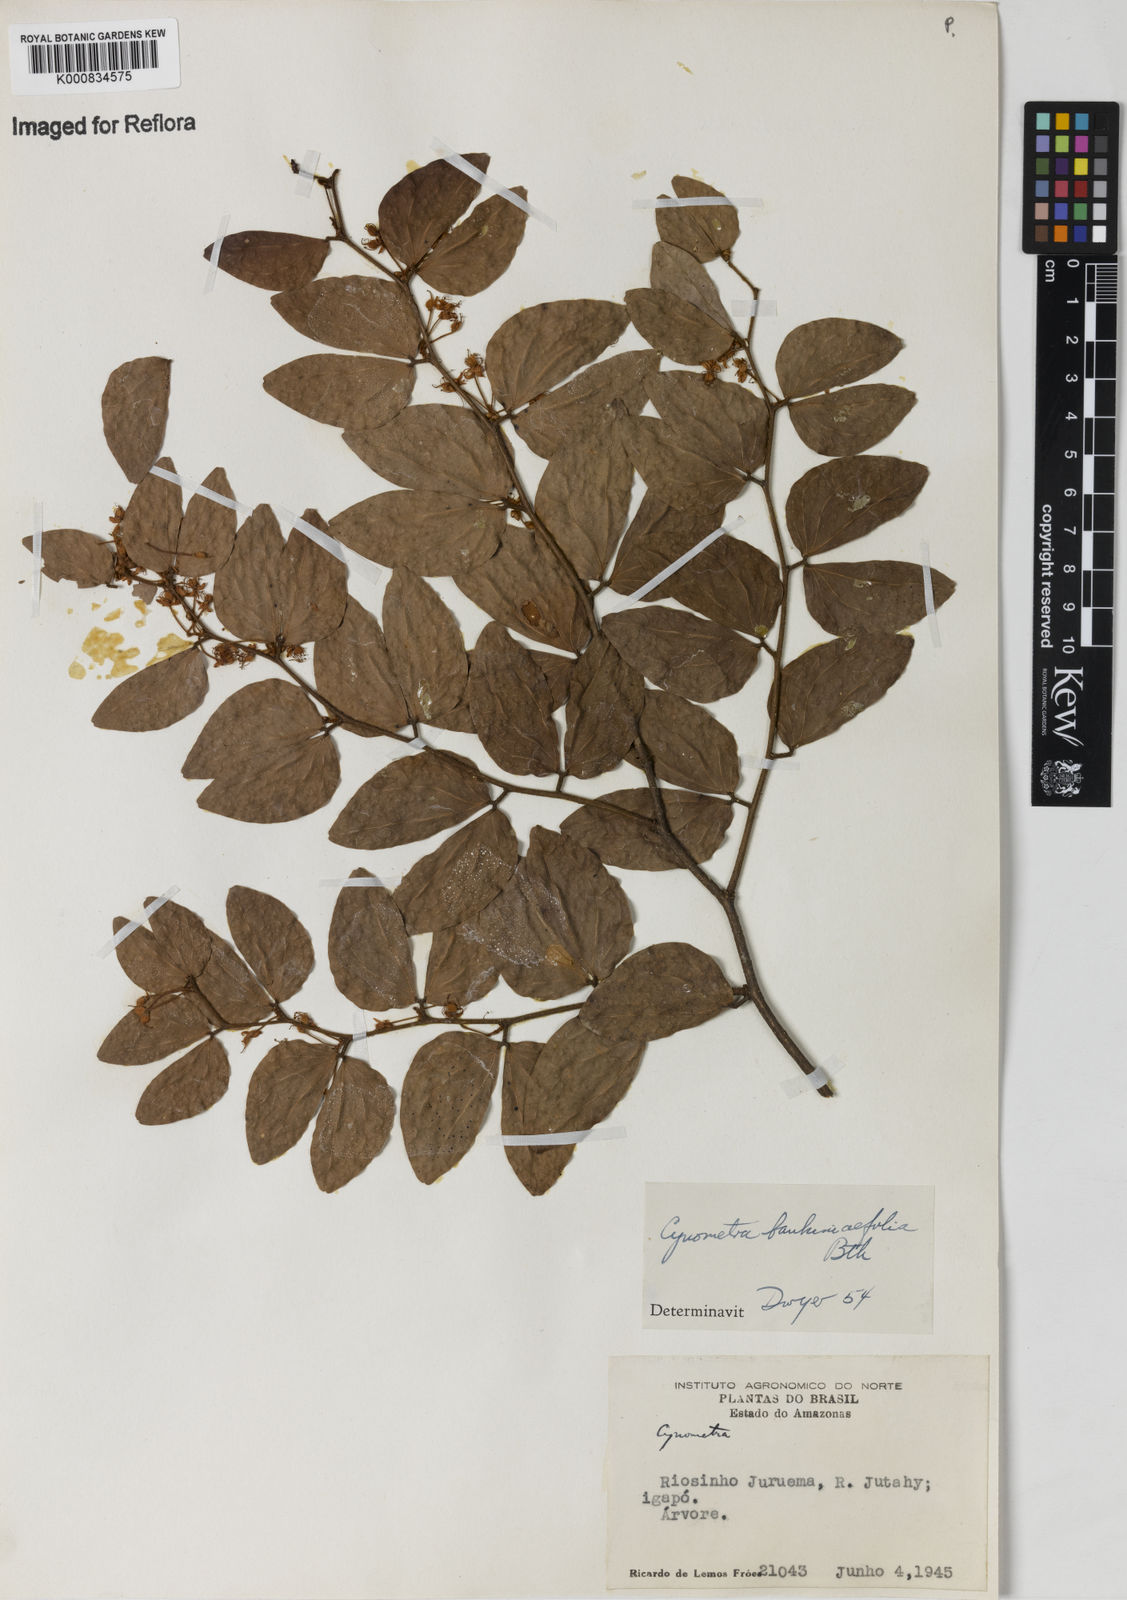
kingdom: Plantae
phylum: Tracheophyta
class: Magnoliopsida
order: Fabales
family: Fabaceae
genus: Cynometra
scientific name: Cynometra bauhiniifolia
